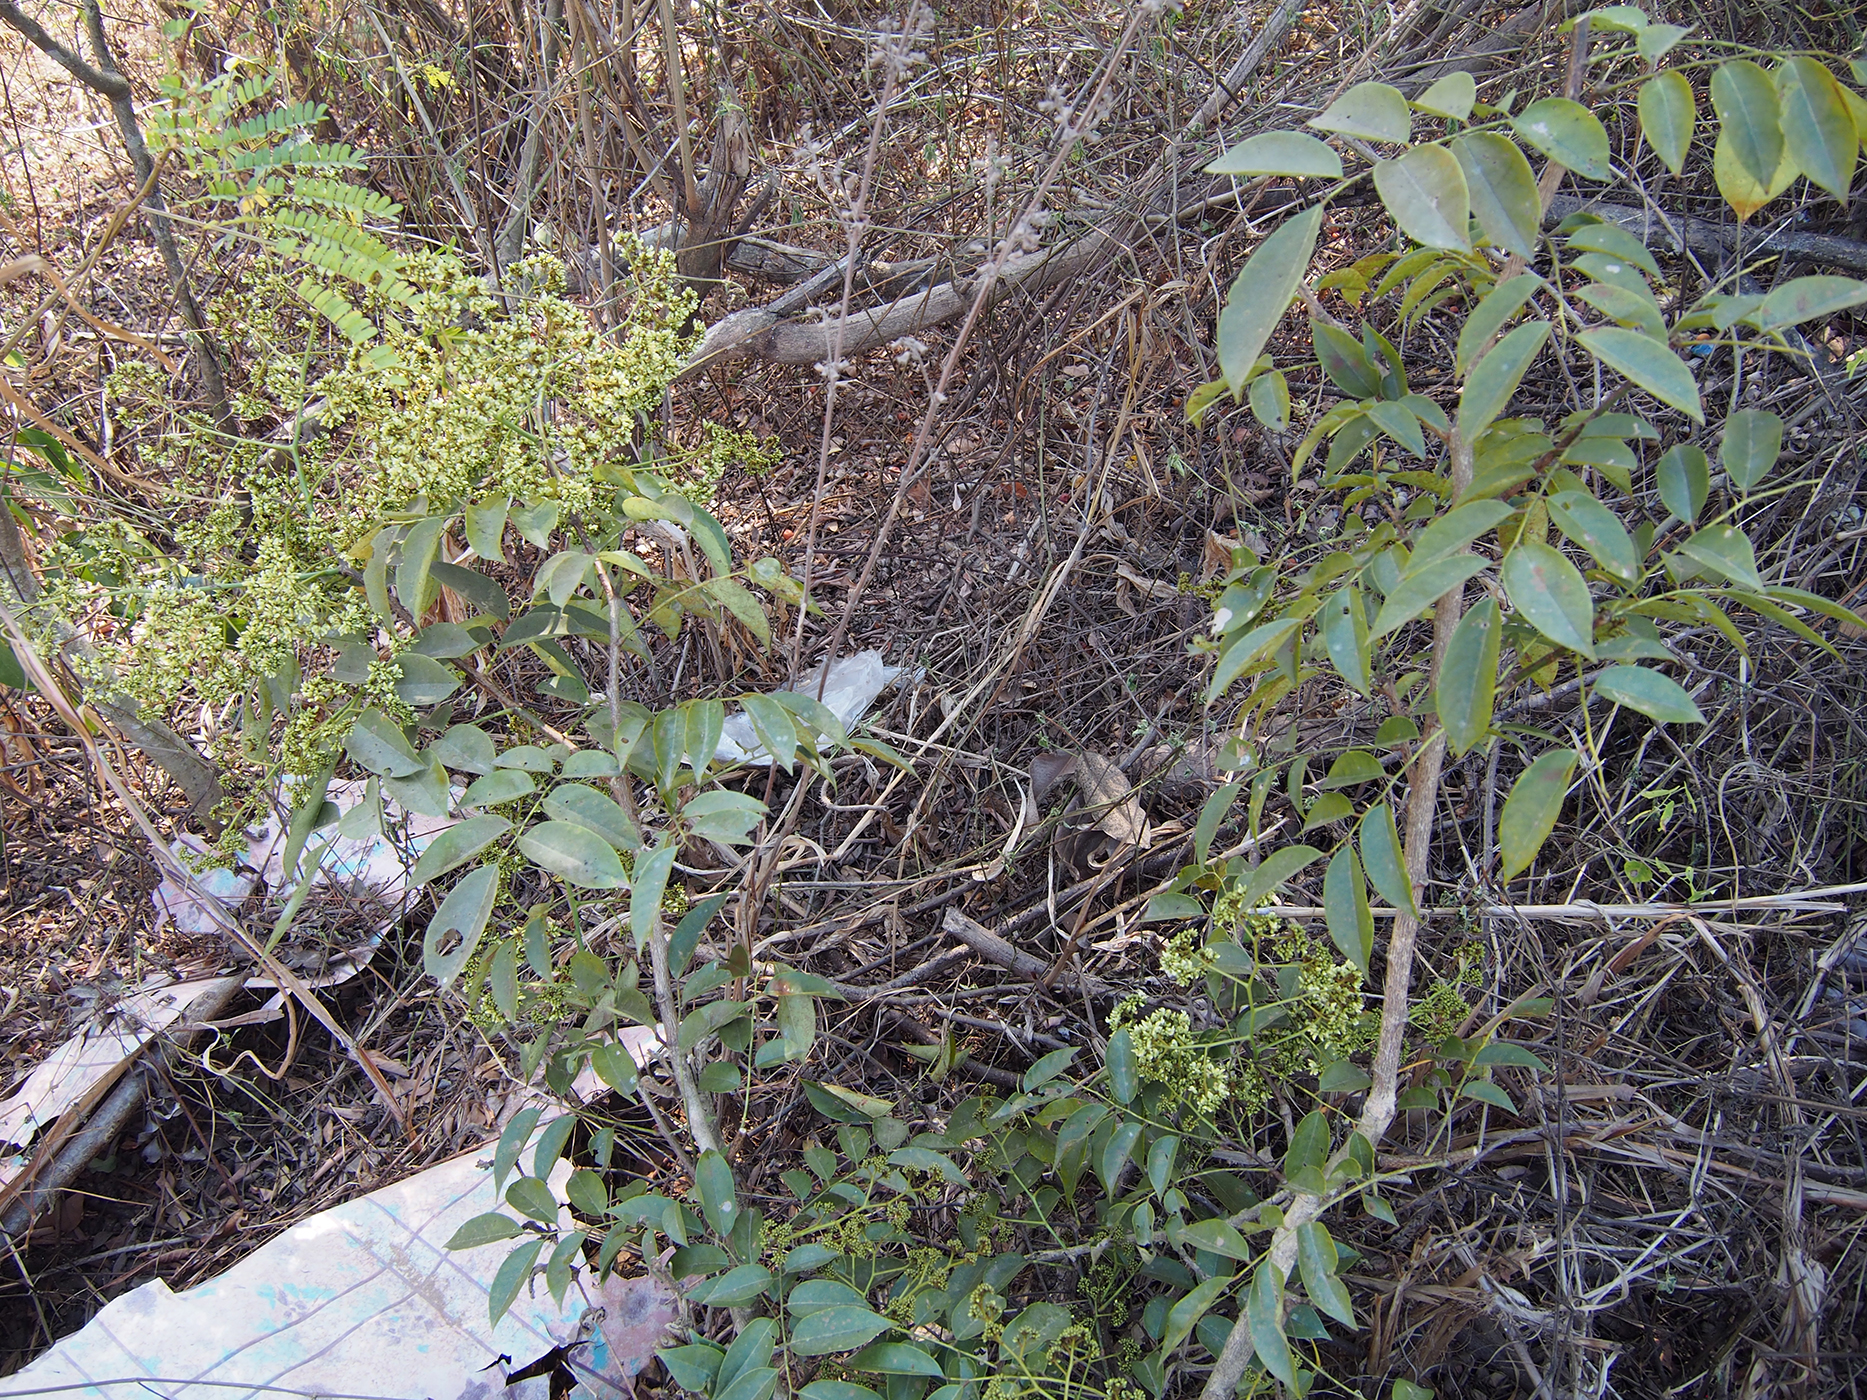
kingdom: Plantae
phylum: Tracheophyta
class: Magnoliopsida
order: Fabales
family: Fabaceae
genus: Dalbergia
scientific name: Dalbergia glomeriflora
